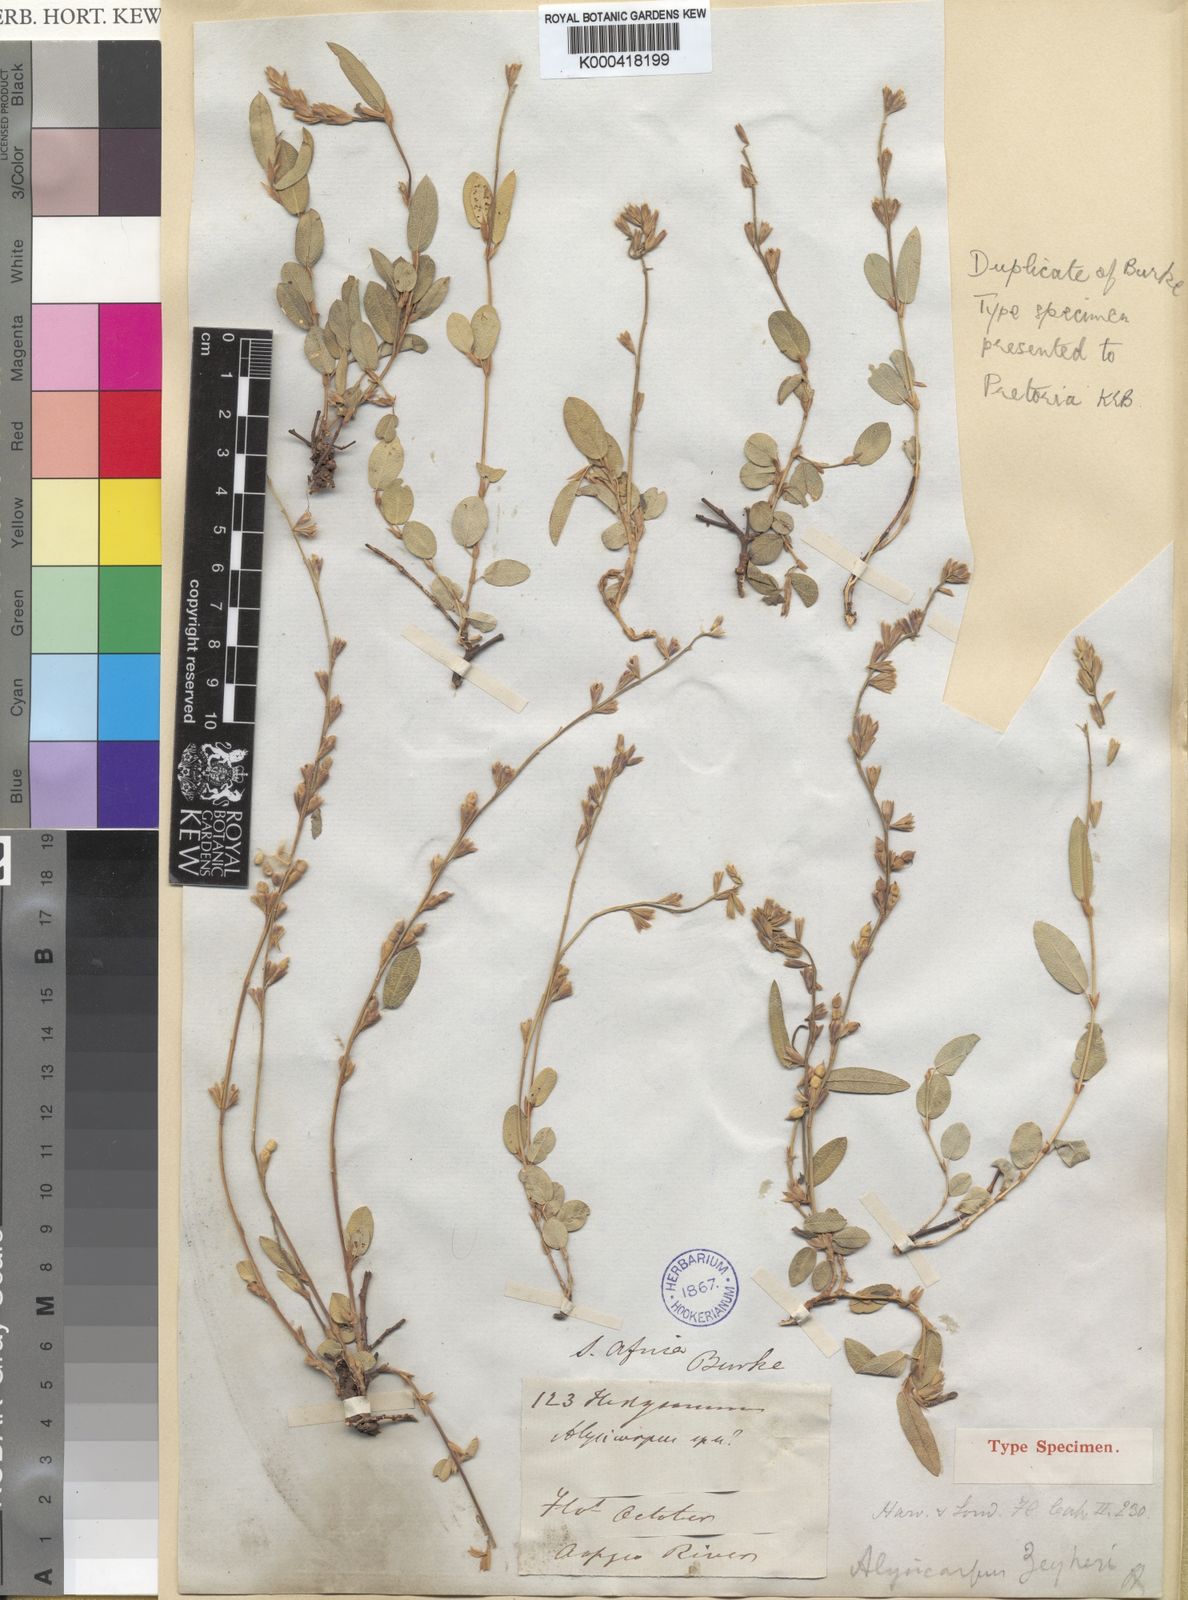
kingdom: Plantae
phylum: Tracheophyta
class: Magnoliopsida
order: Fabales
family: Fabaceae
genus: Alysicarpus
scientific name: Alysicarpus zeyheri
